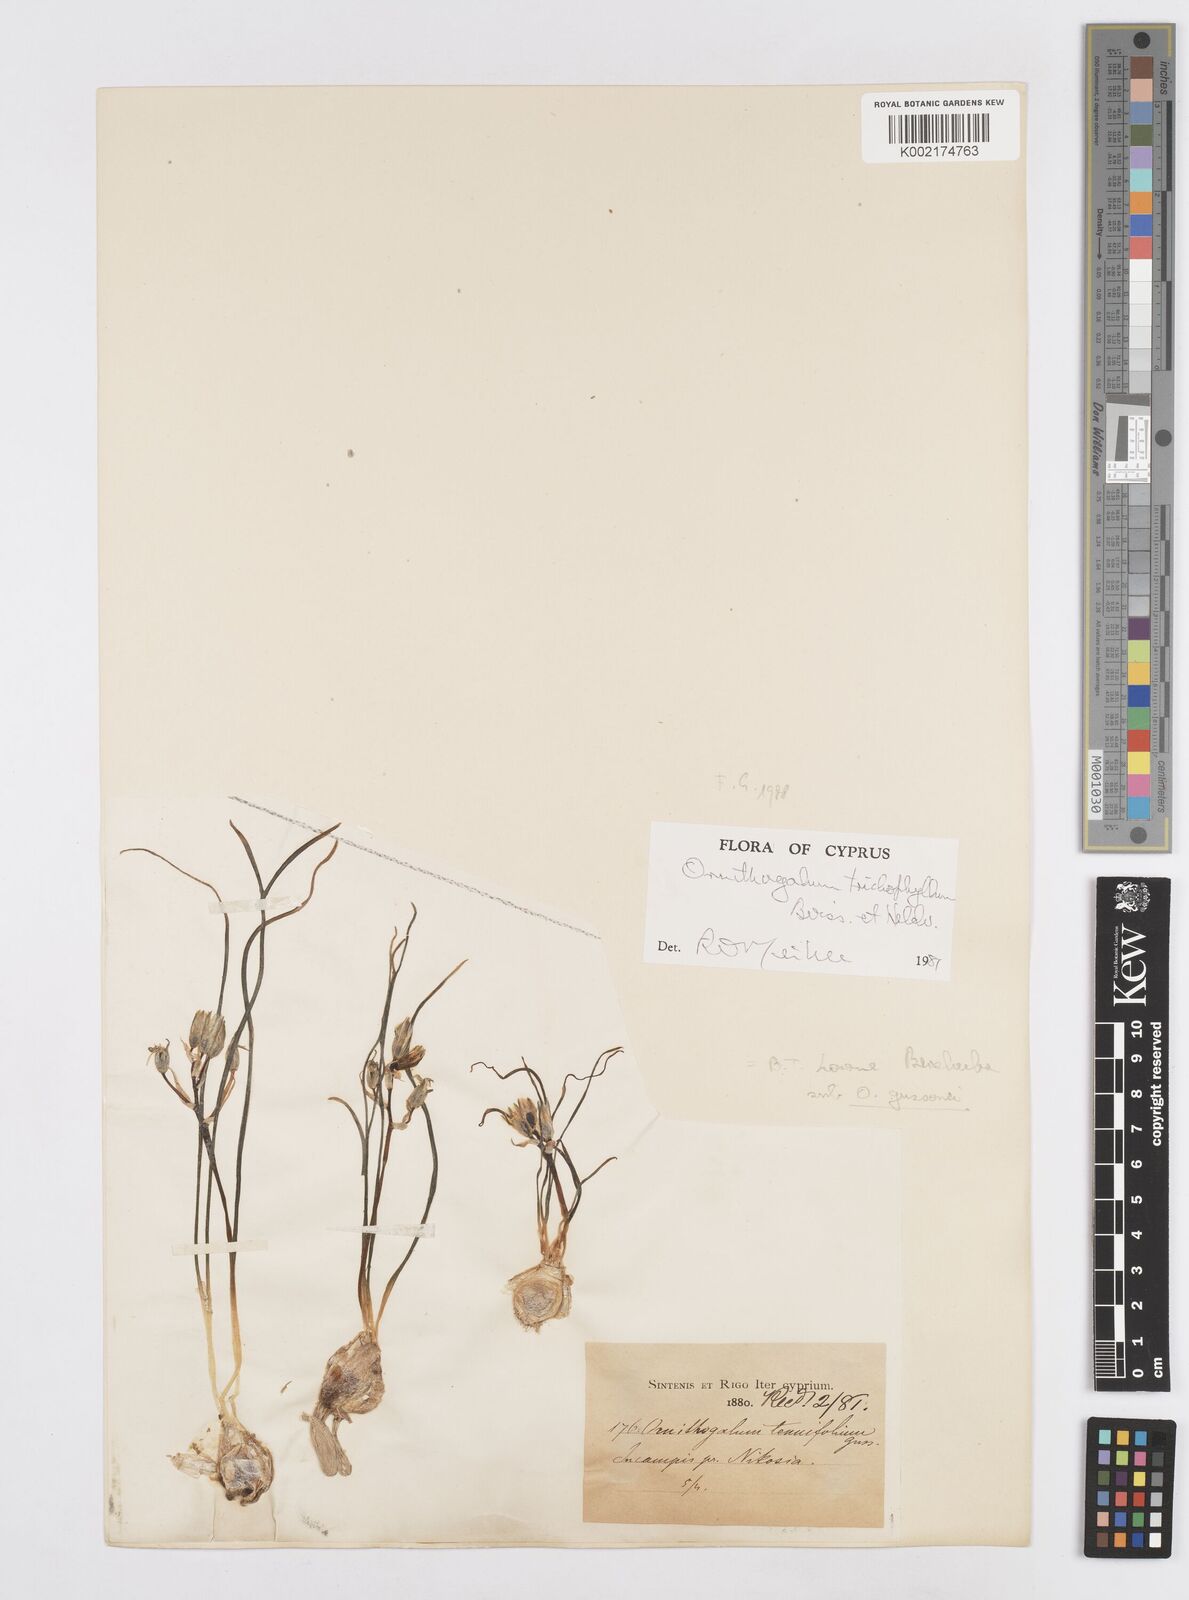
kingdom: Plantae
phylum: Tracheophyta
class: Liliopsida
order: Asparagales
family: Asparagaceae
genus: Ornithogalum
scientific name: Ornithogalum trichophyllum
